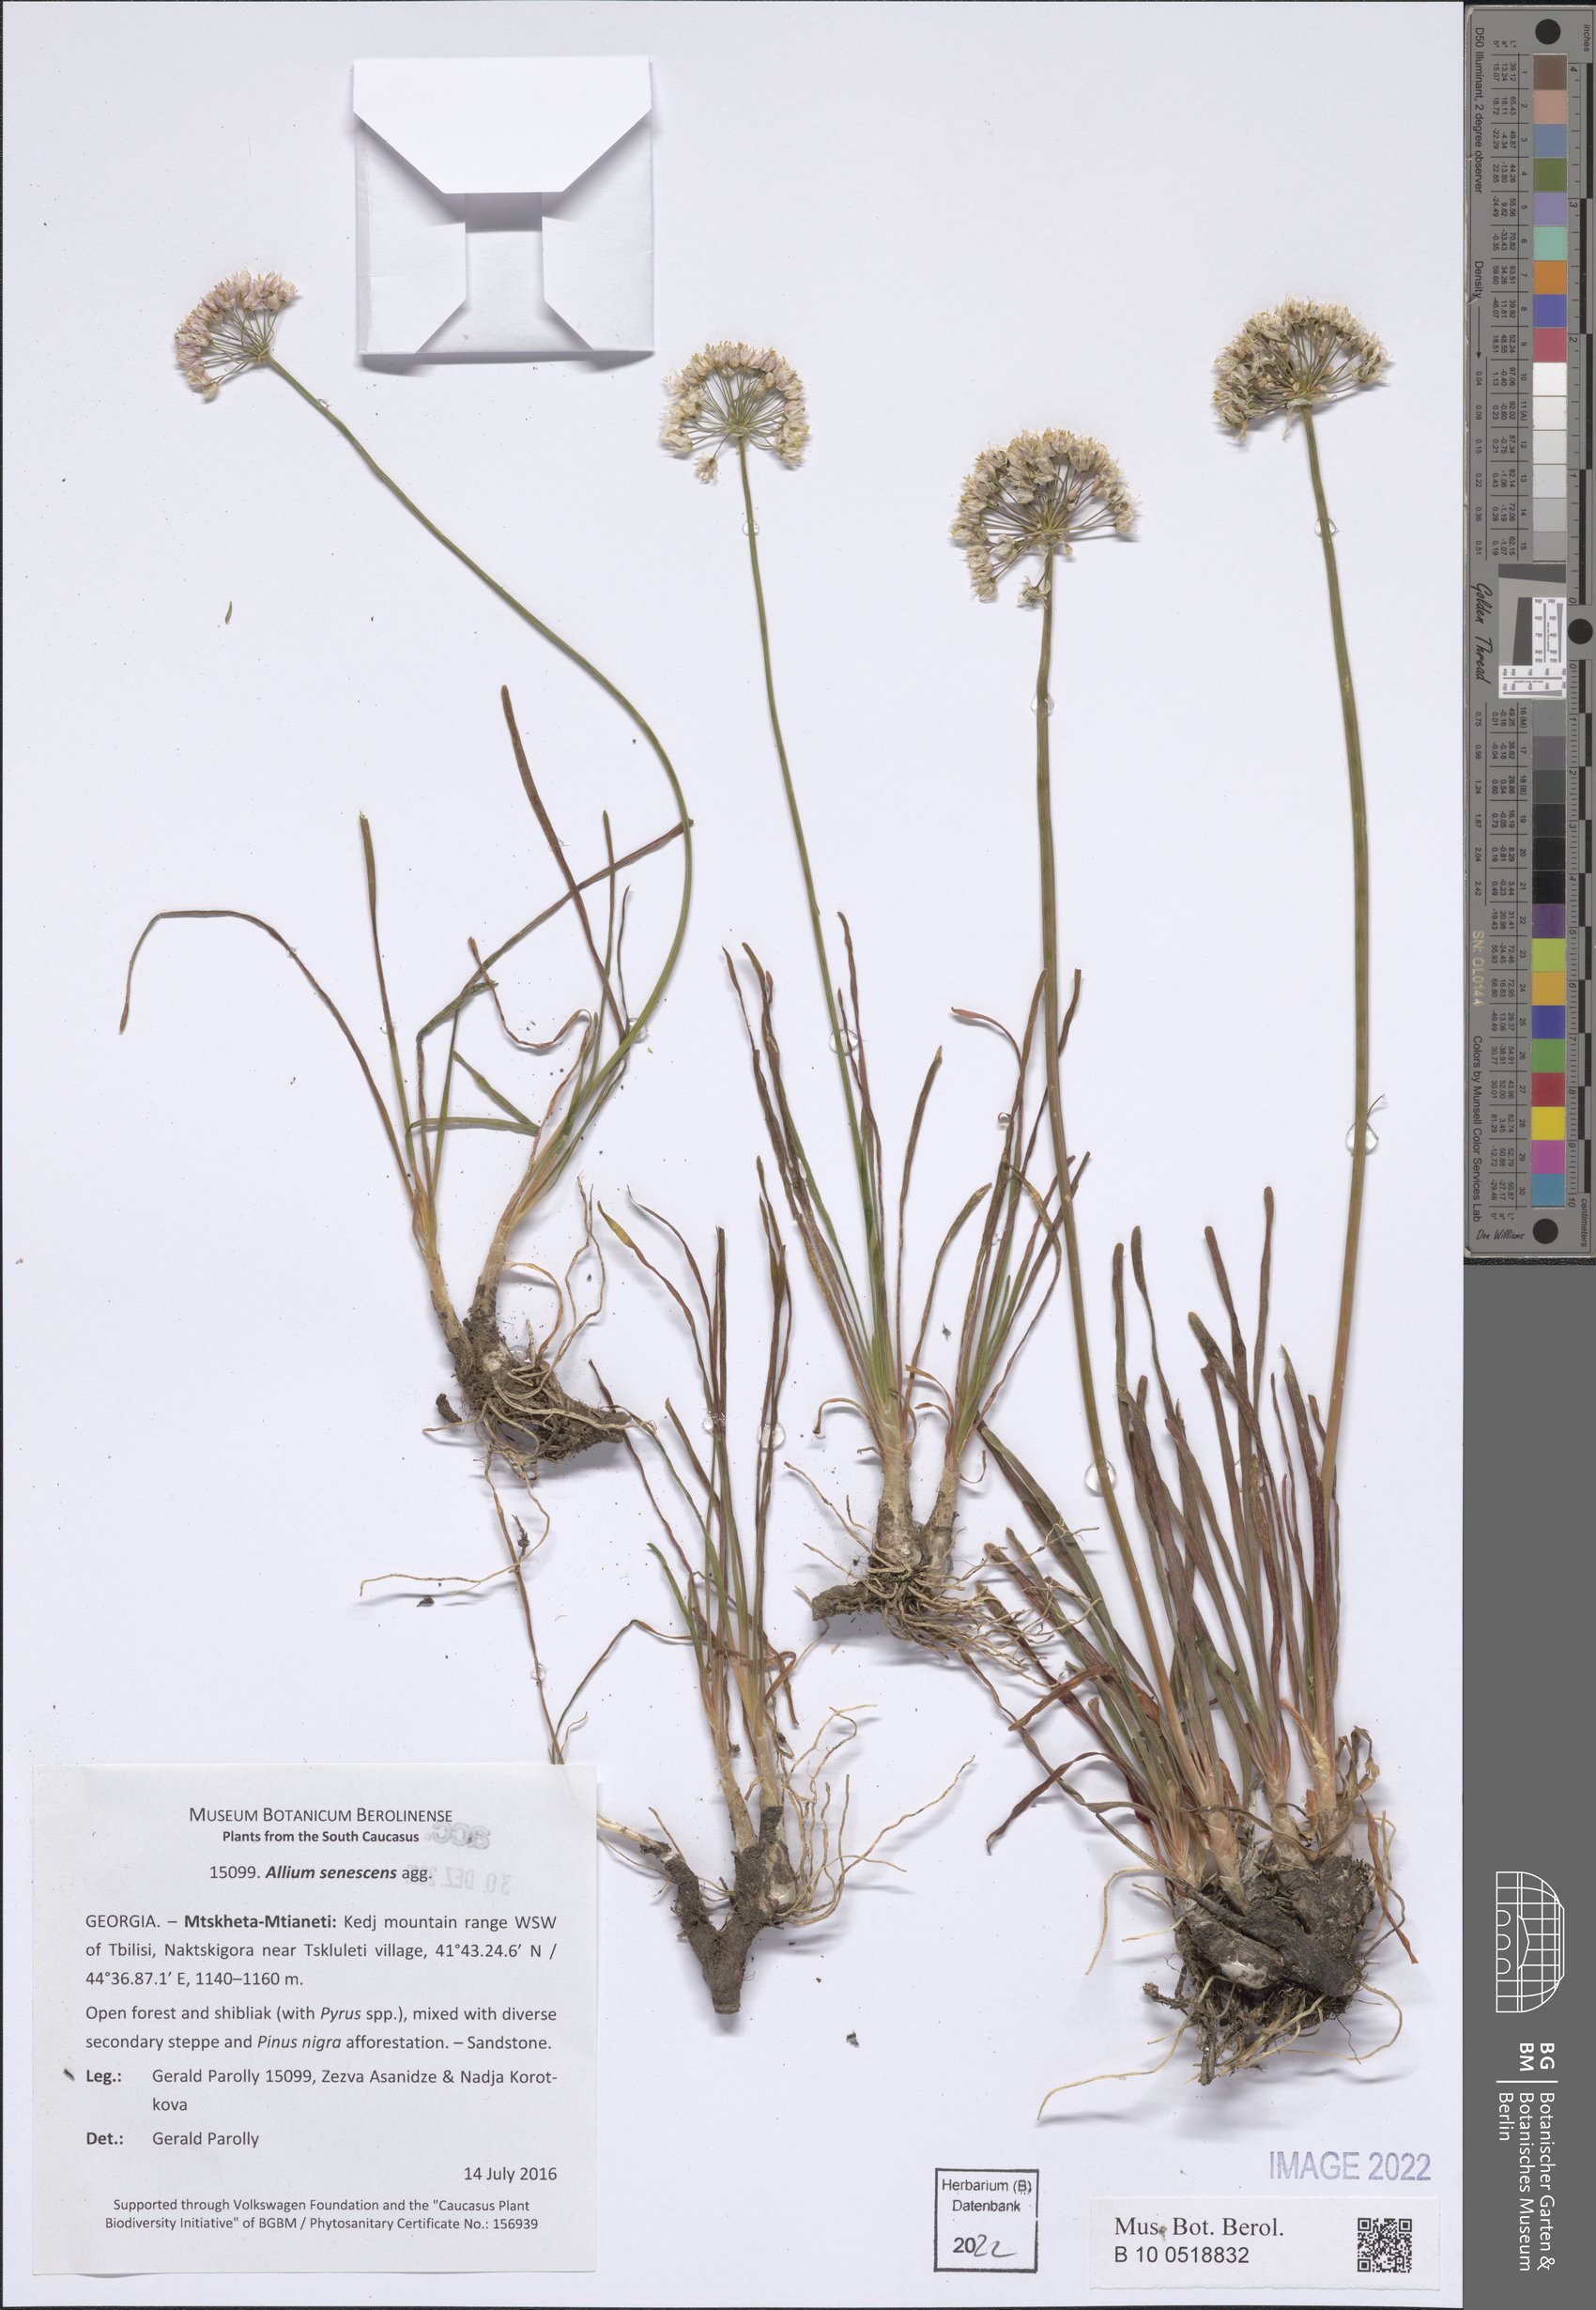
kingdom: Plantae
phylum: Tracheophyta
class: Liliopsida
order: Asparagales
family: Amaryllidaceae
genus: Allium
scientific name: Allium senescens
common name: German garlic
